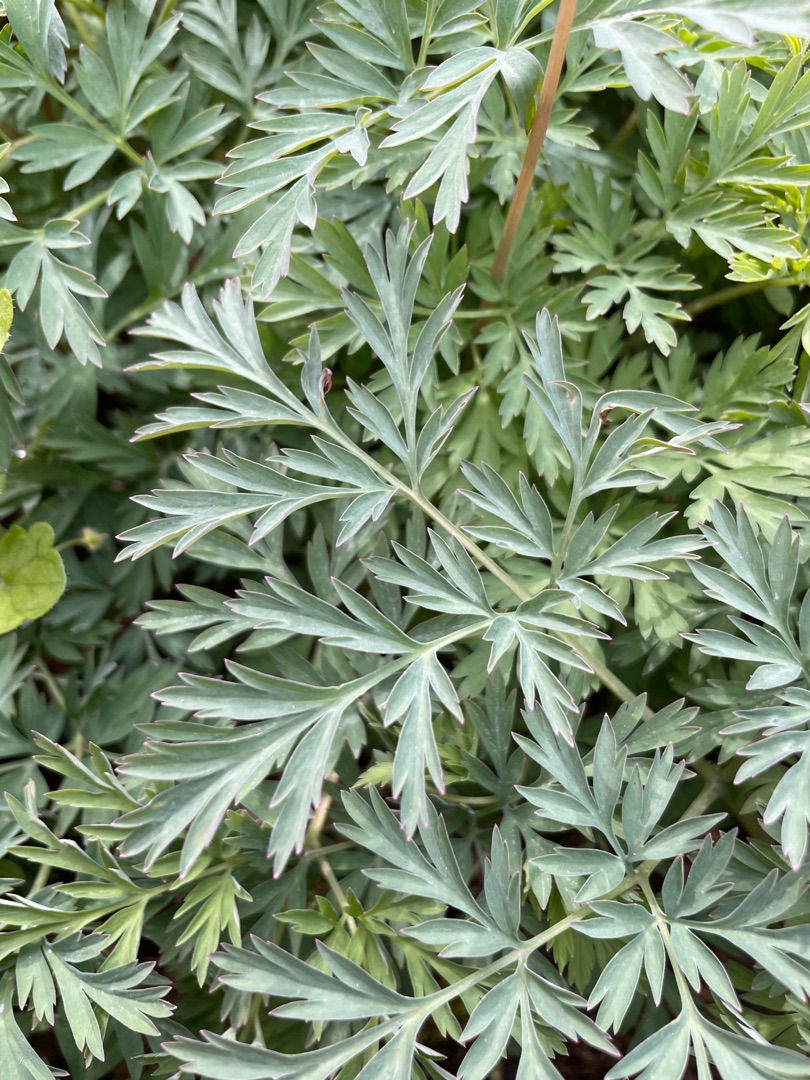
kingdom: Plantae
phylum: Tracheophyta
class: Magnoliopsida
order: Ranunculales
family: Papaveraceae
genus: Dicentra
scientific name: Dicentra formosa
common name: Småhjerte
